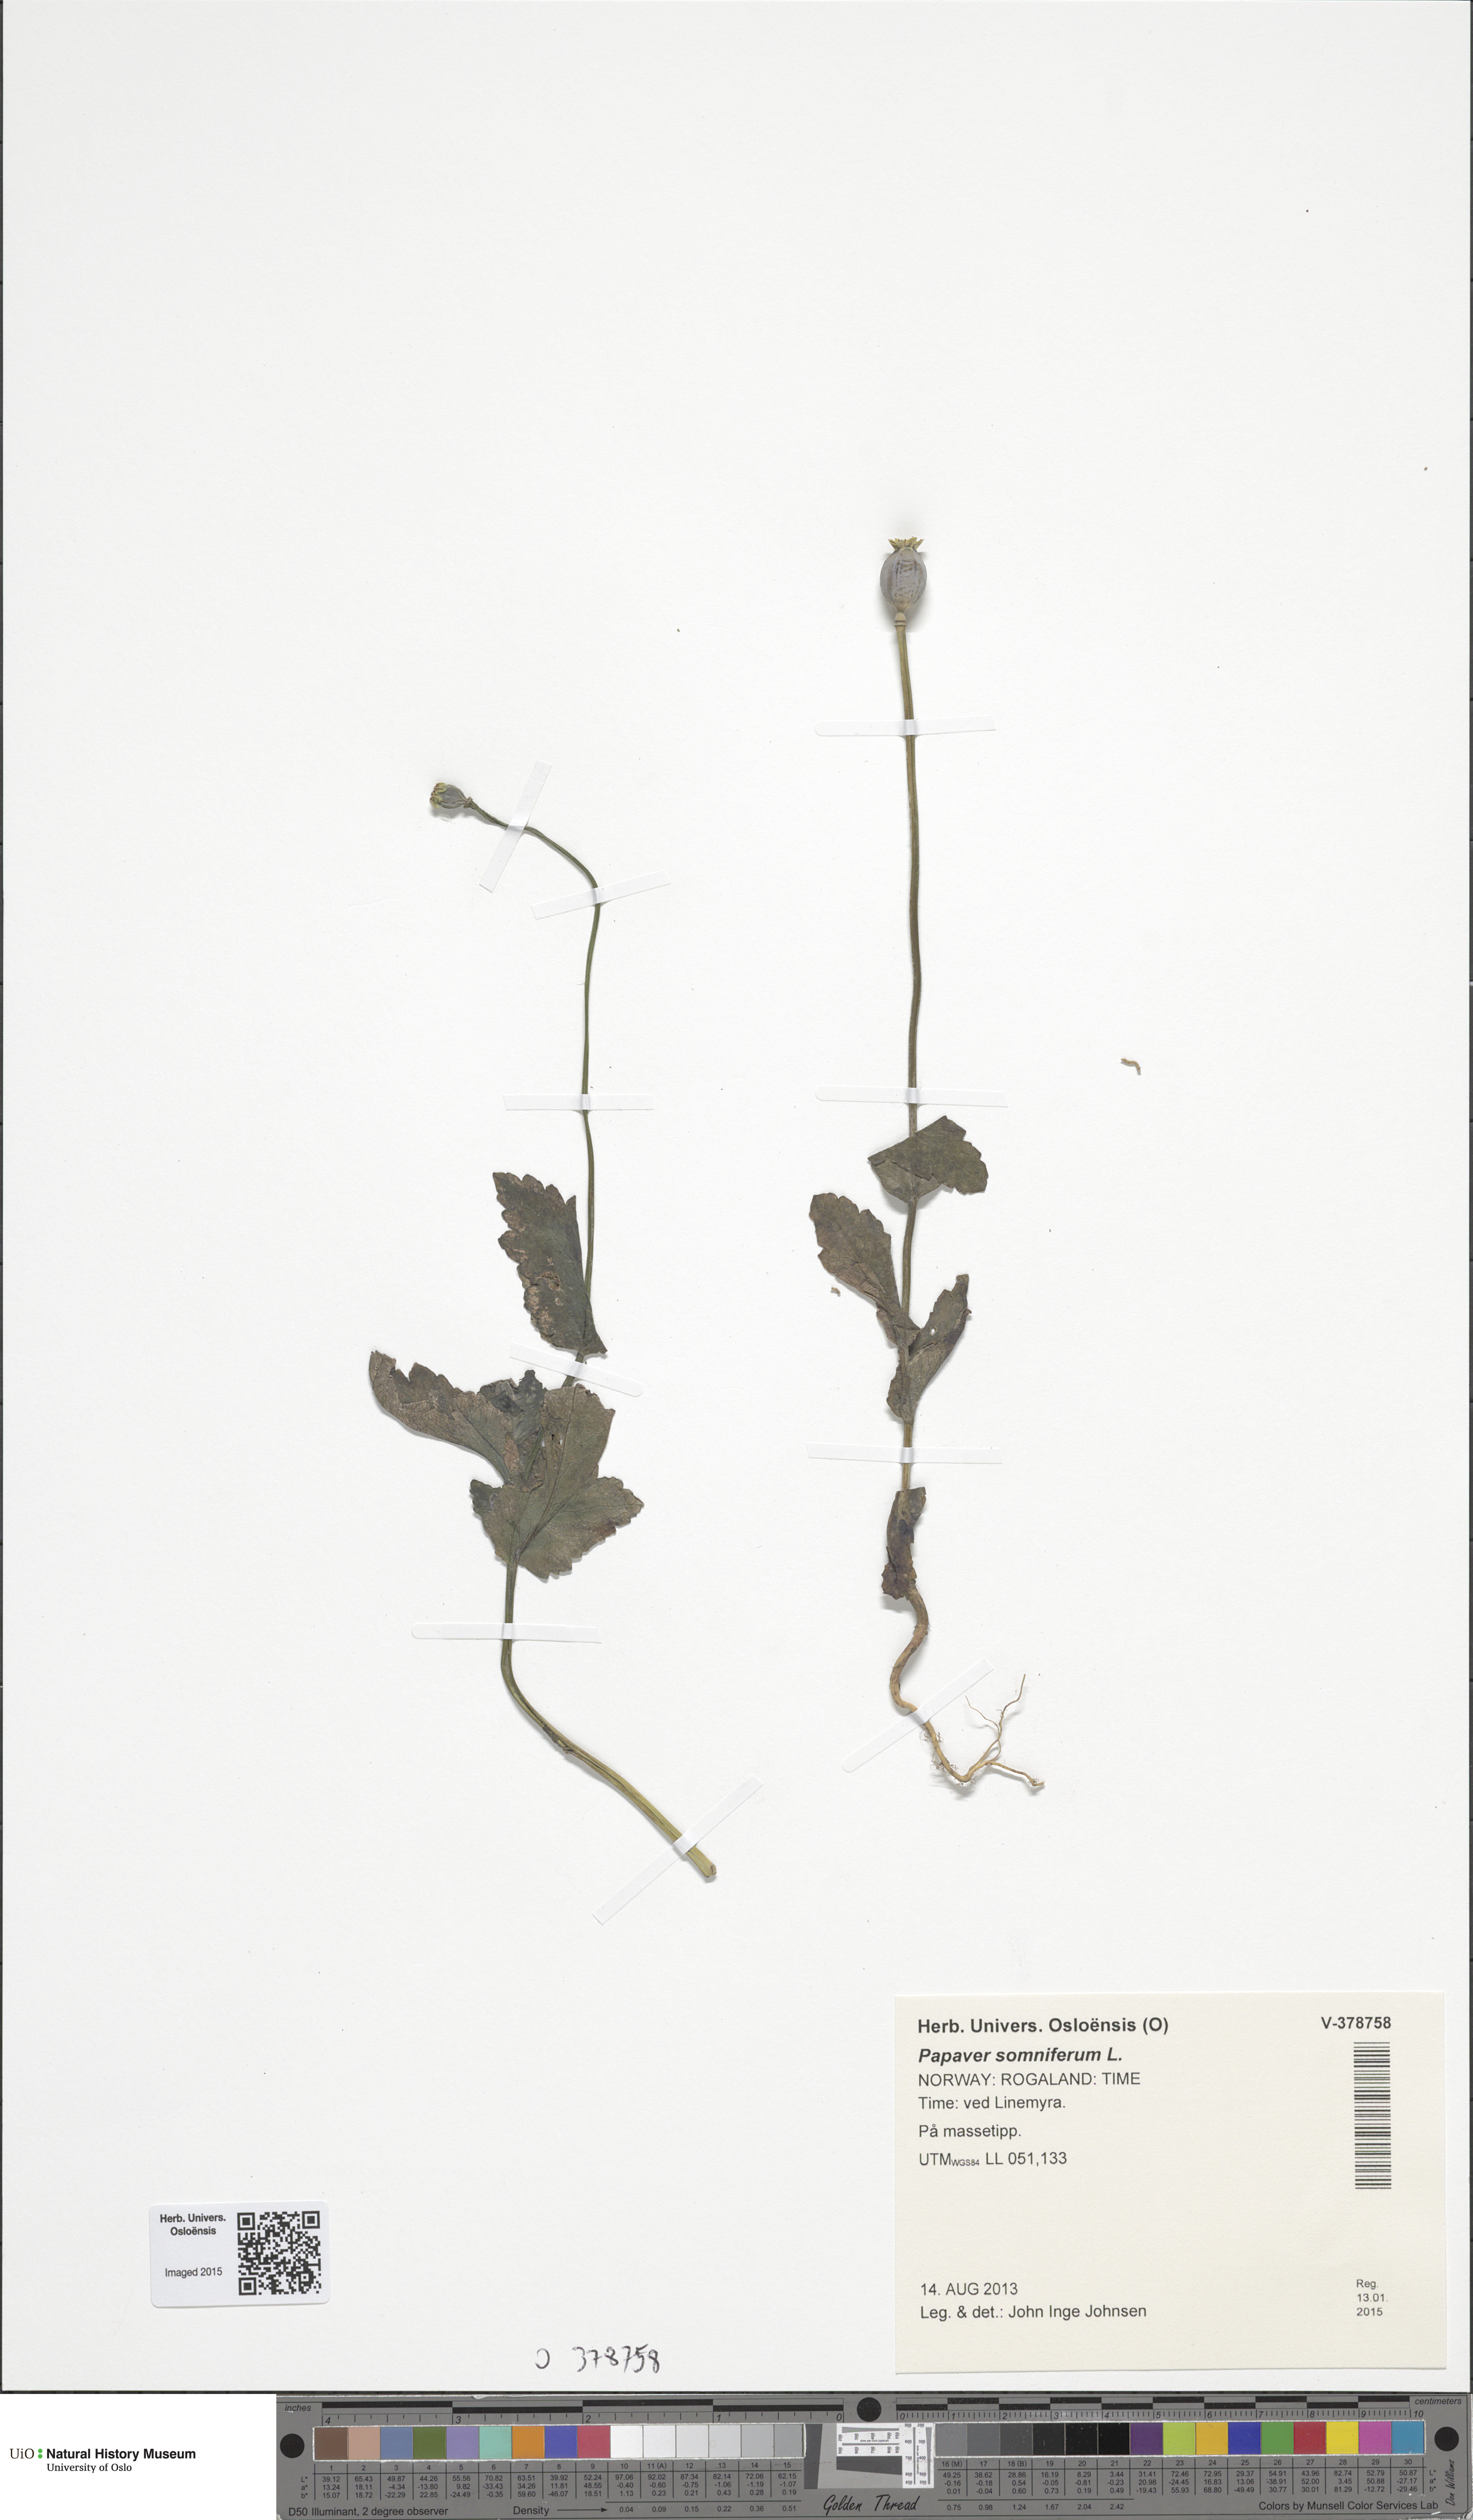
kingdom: Plantae
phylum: Tracheophyta
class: Magnoliopsida
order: Ranunculales
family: Papaveraceae
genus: Papaver
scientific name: Papaver somniferum
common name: Opium poppy
